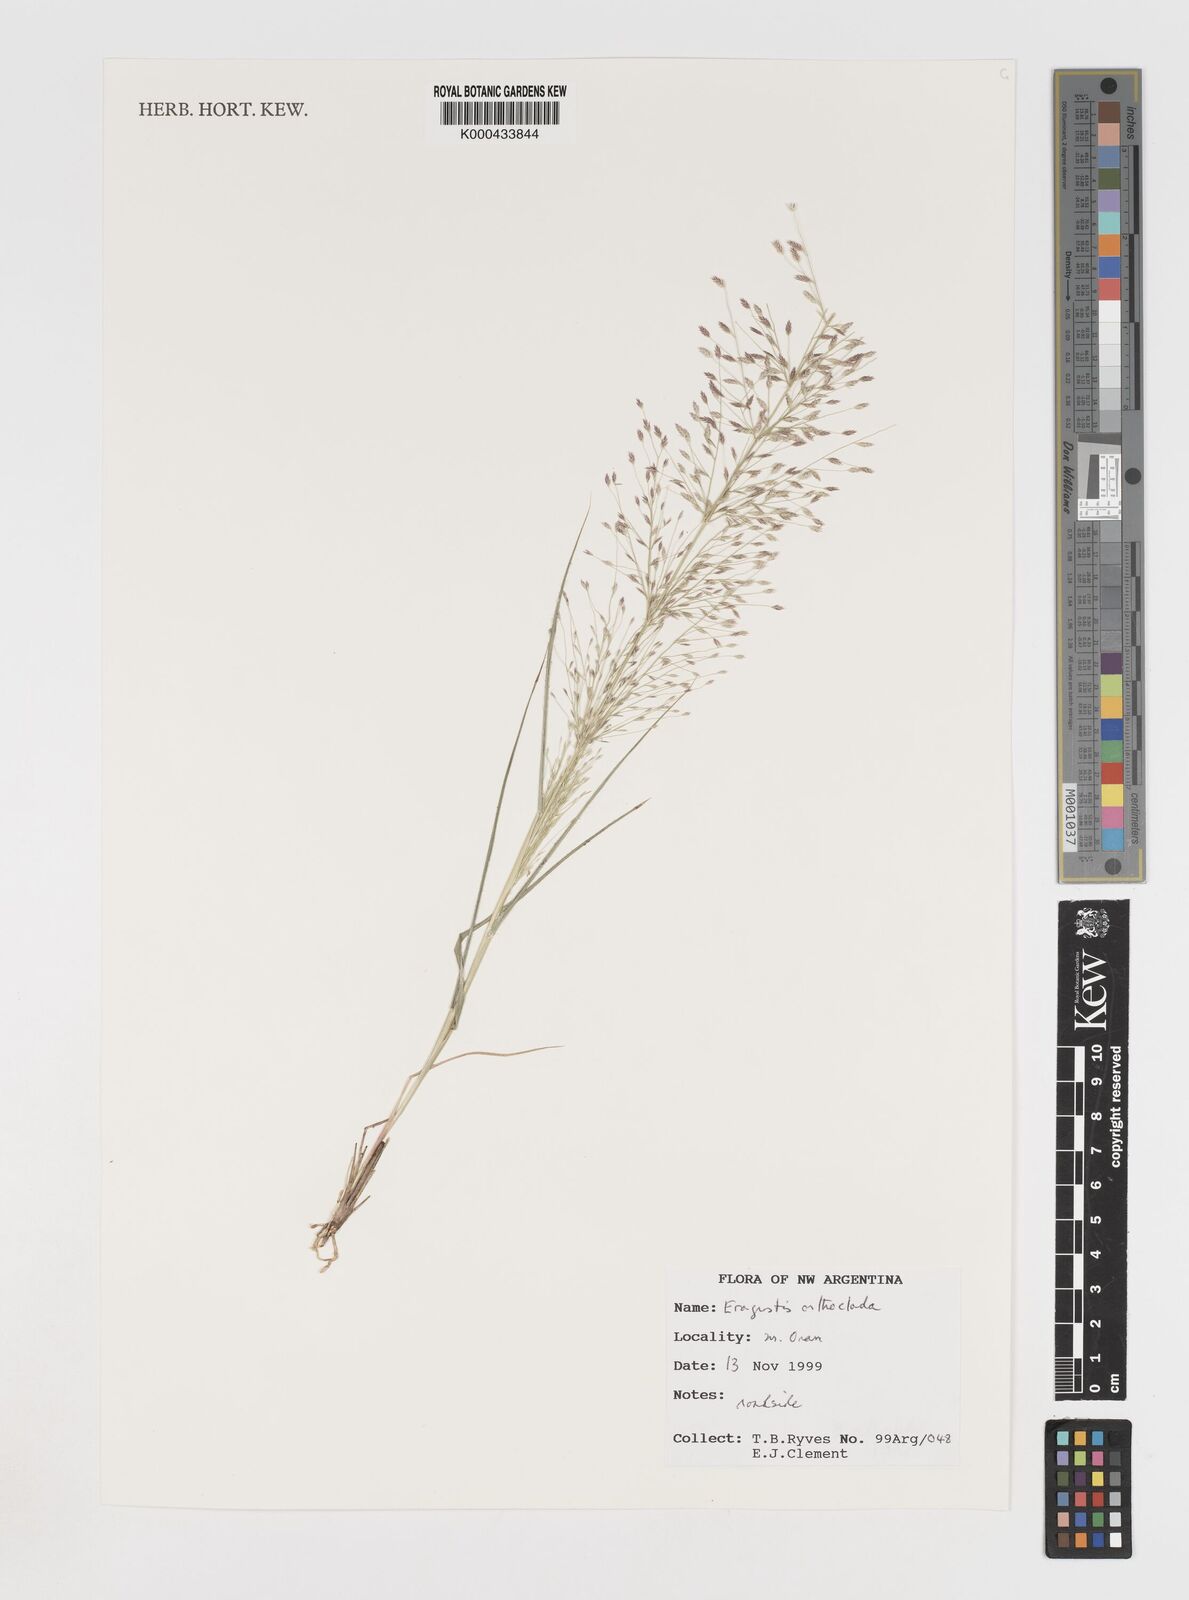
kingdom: Plantae
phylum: Tracheophyta
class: Liliopsida
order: Poales
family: Poaceae
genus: Eragrostis
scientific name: Eragrostis orthoclada
